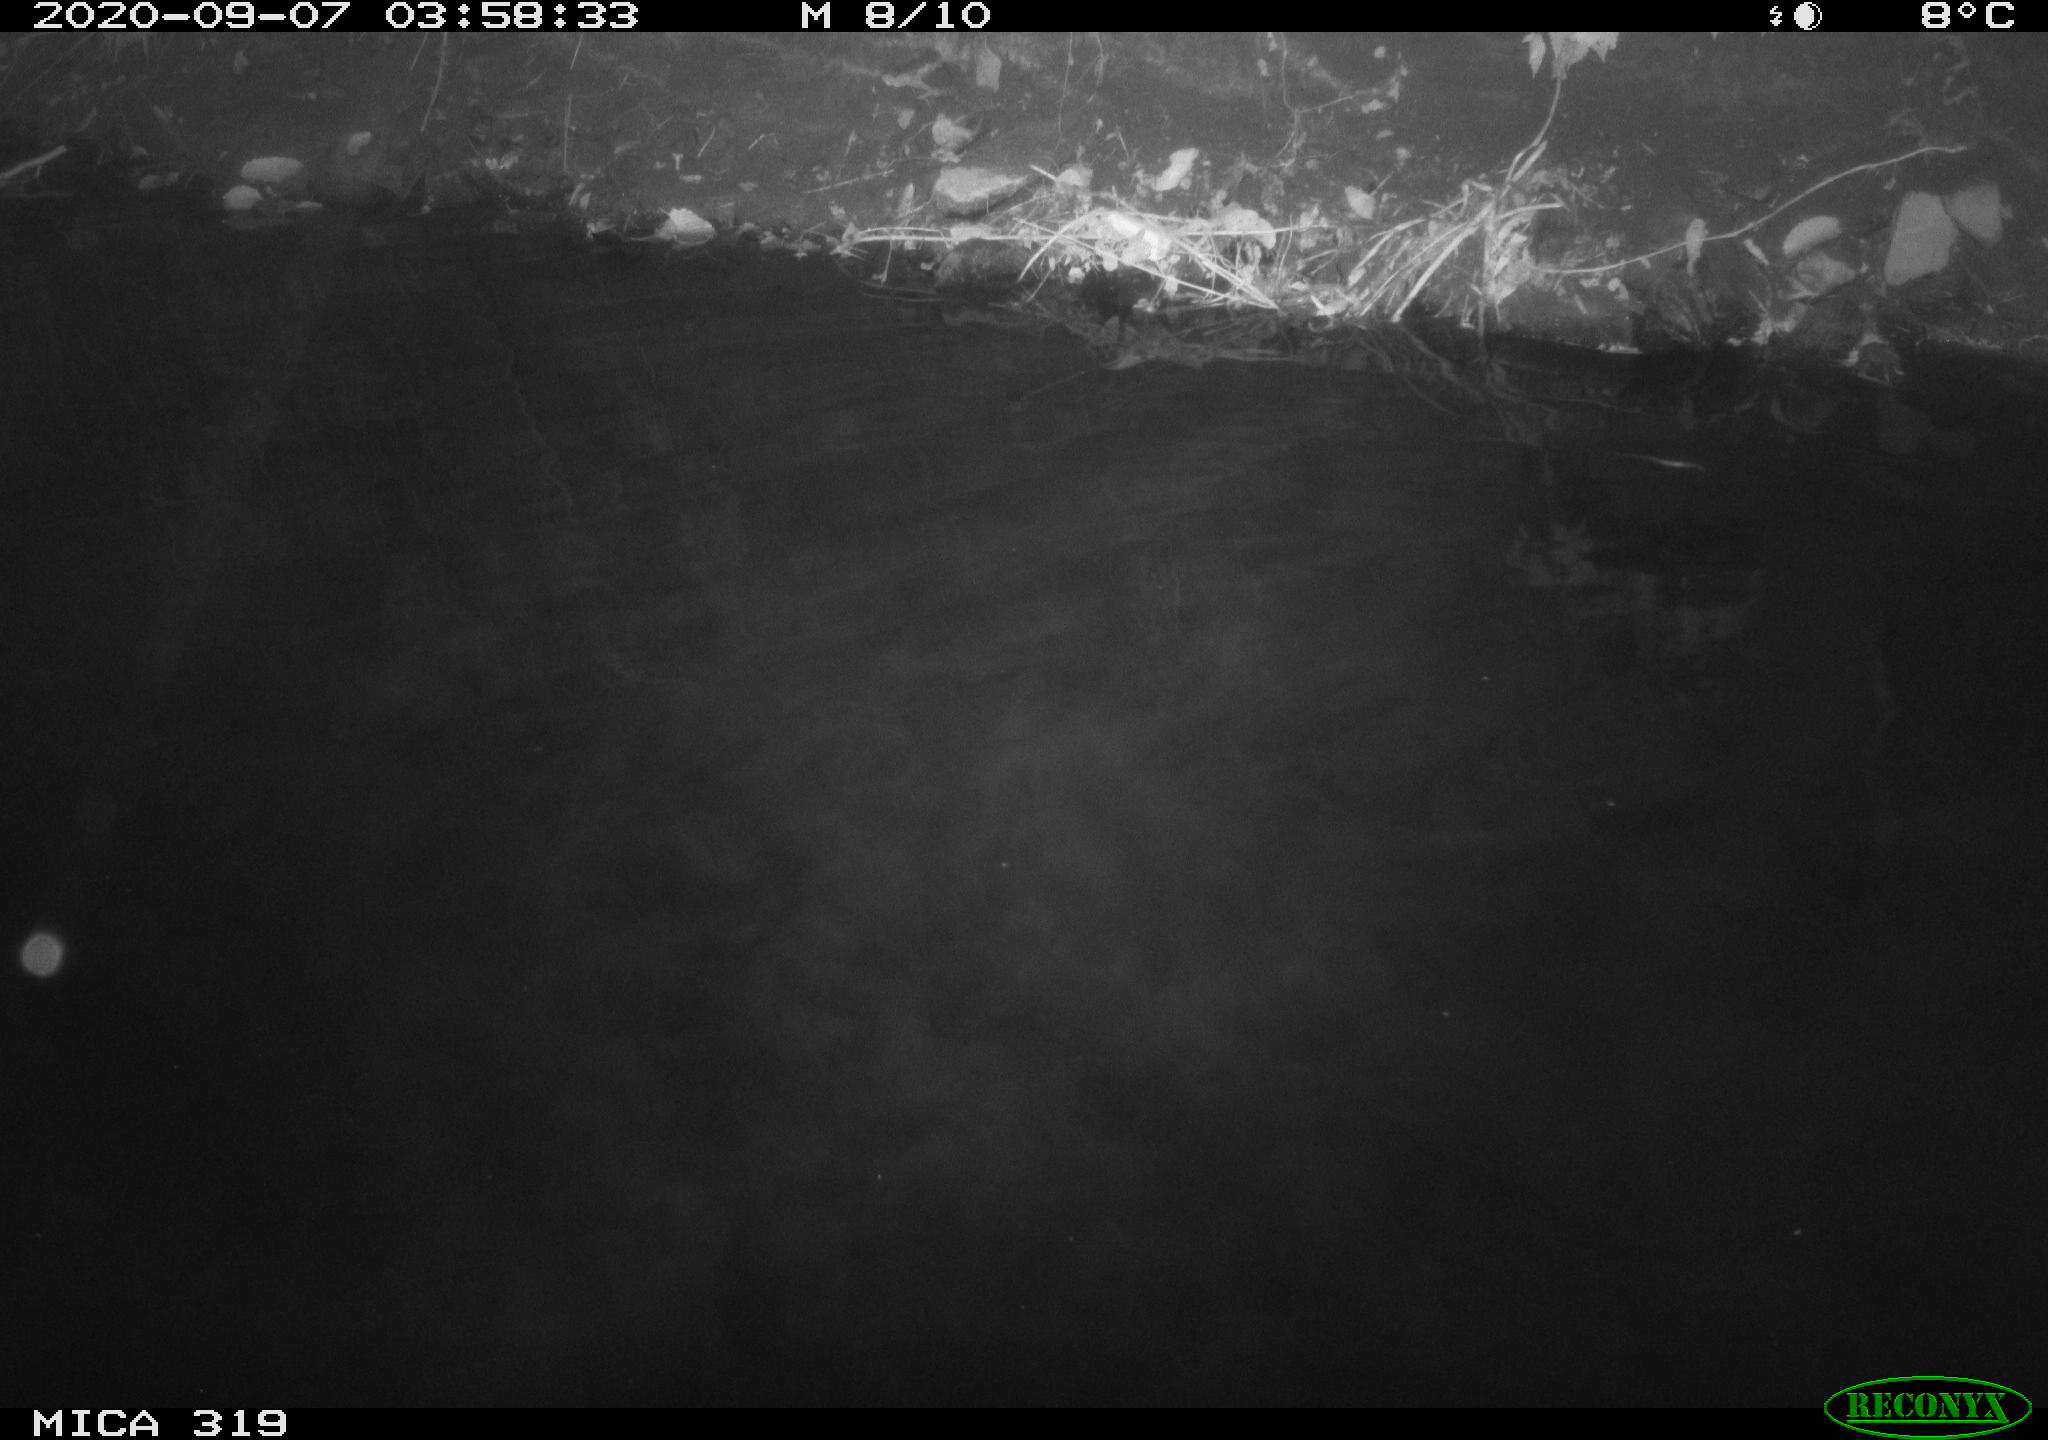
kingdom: Animalia
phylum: Chordata
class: Aves
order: Anseriformes
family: Anatidae
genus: Anas
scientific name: Anas platyrhynchos
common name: Mallard
